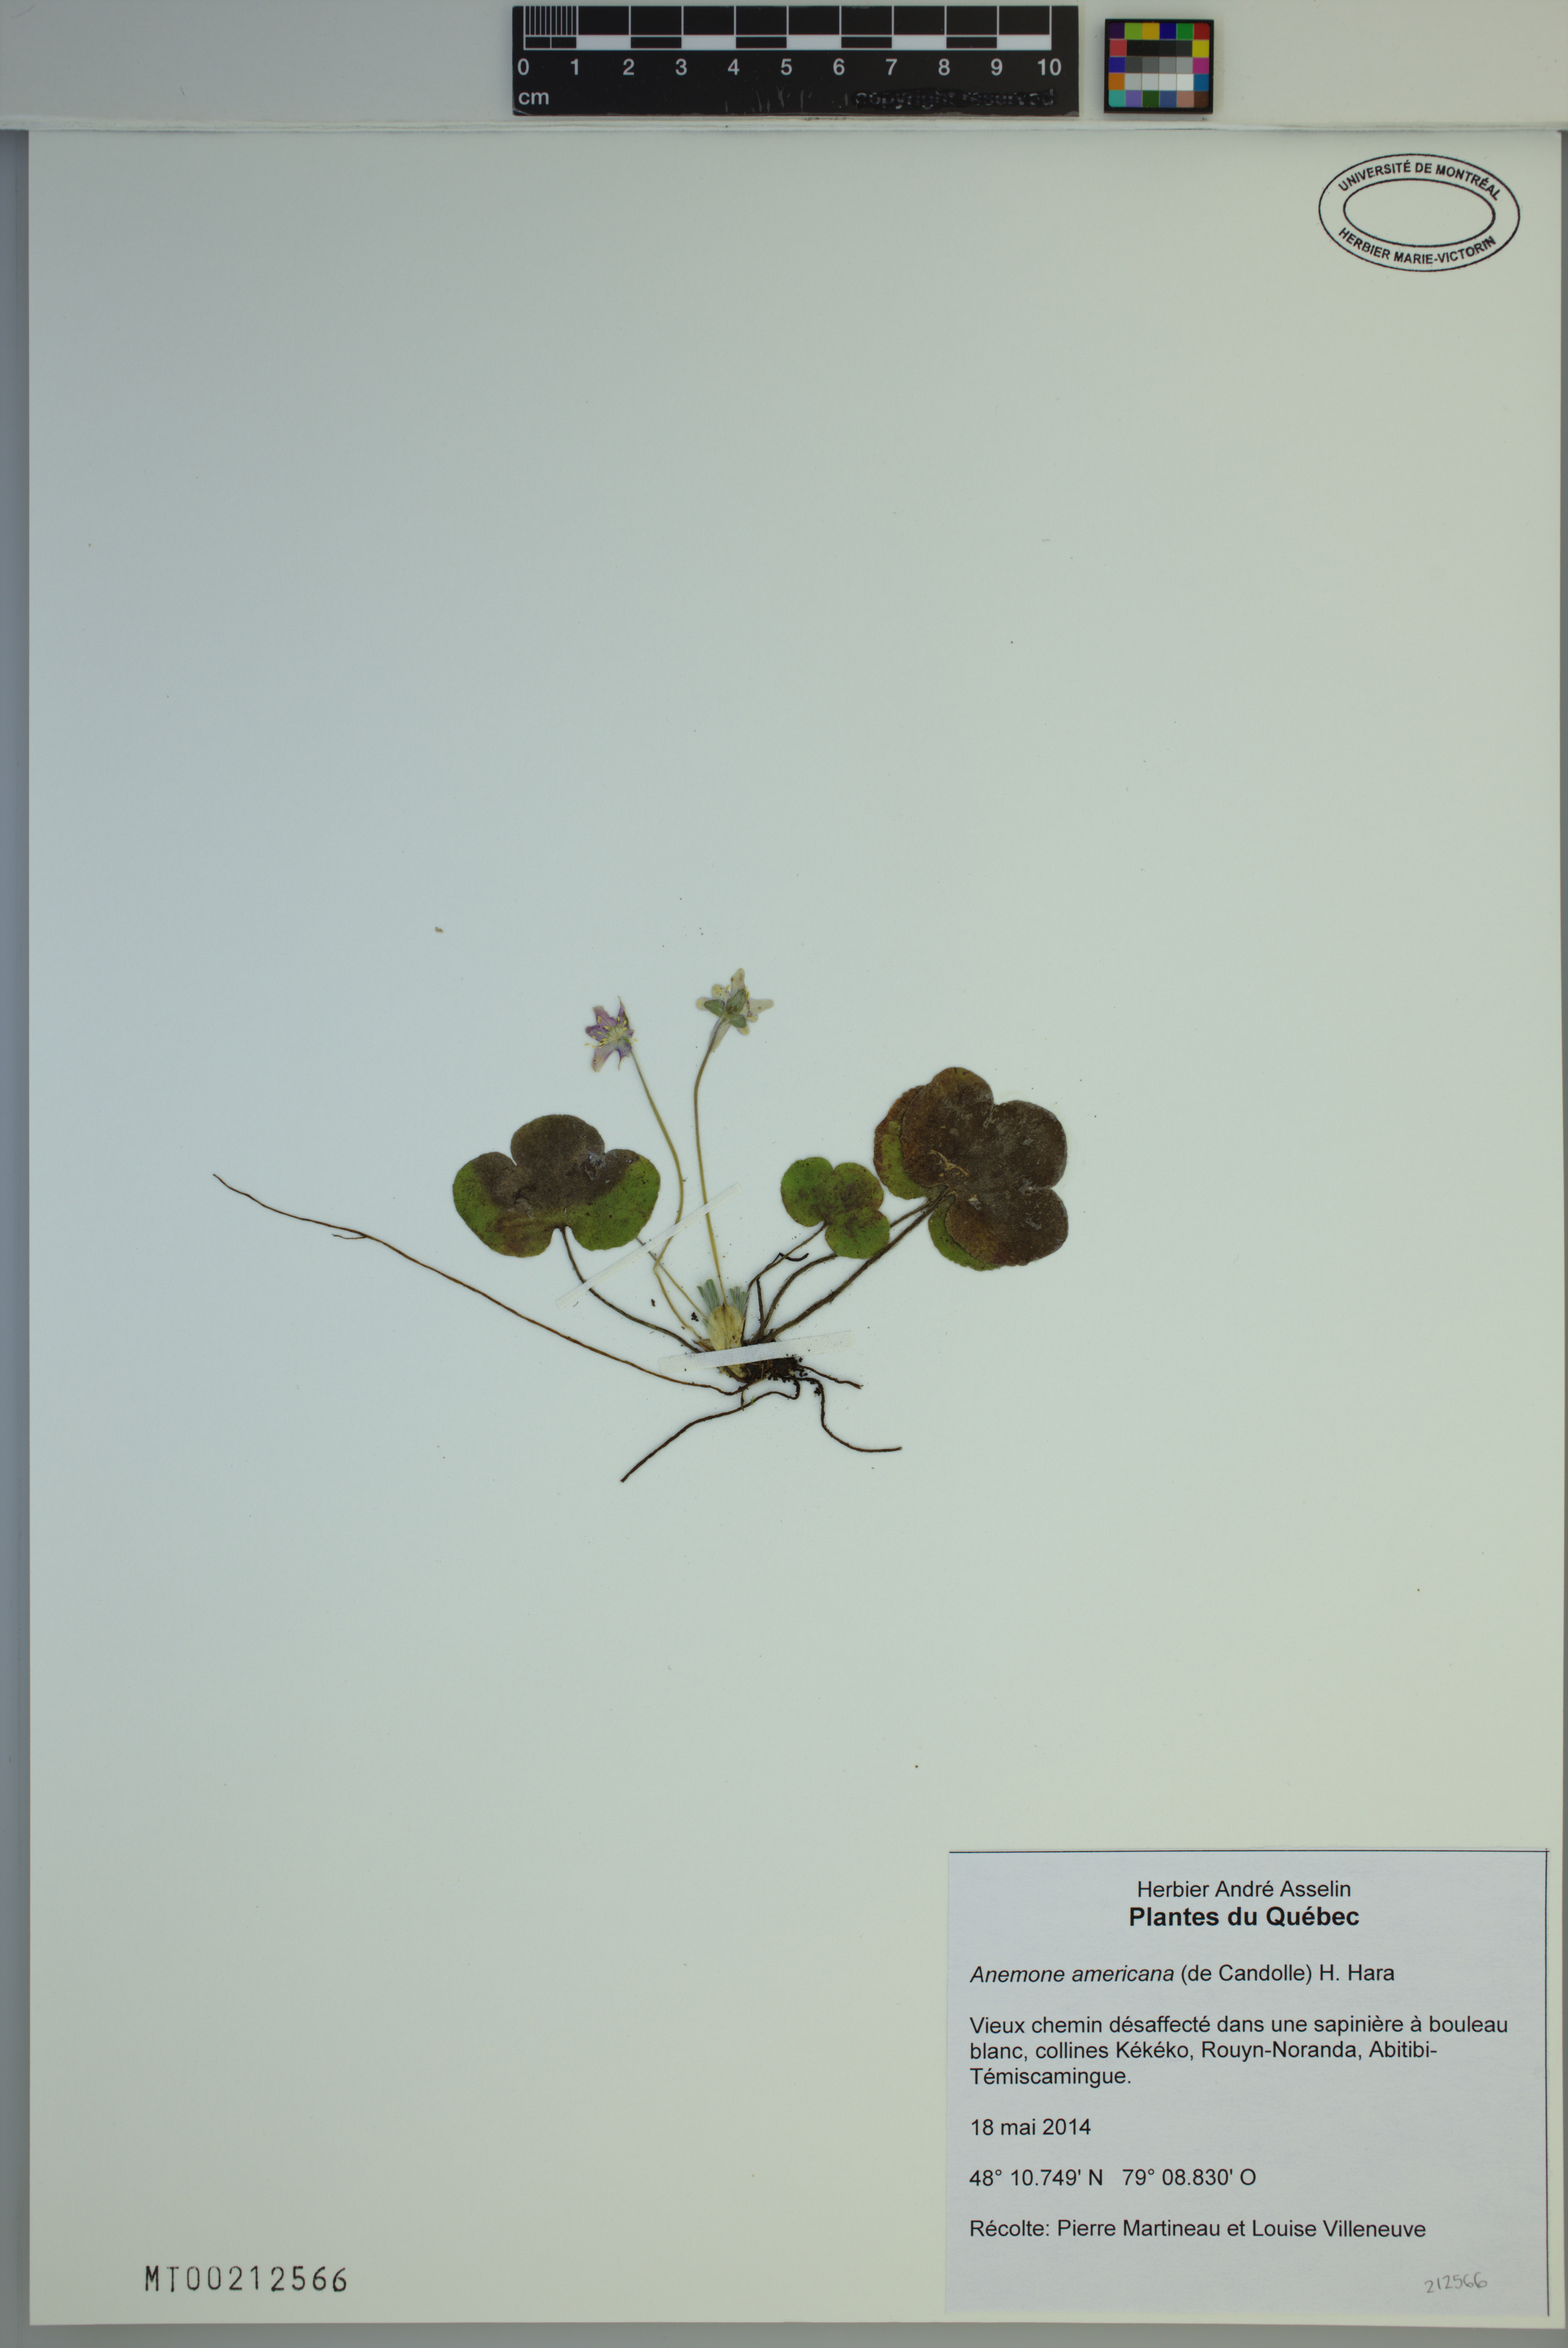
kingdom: Plantae
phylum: Tracheophyta
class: Magnoliopsida
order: Ranunculales
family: Ranunculaceae
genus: Hepatica
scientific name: Hepatica americana
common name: American hepatica
